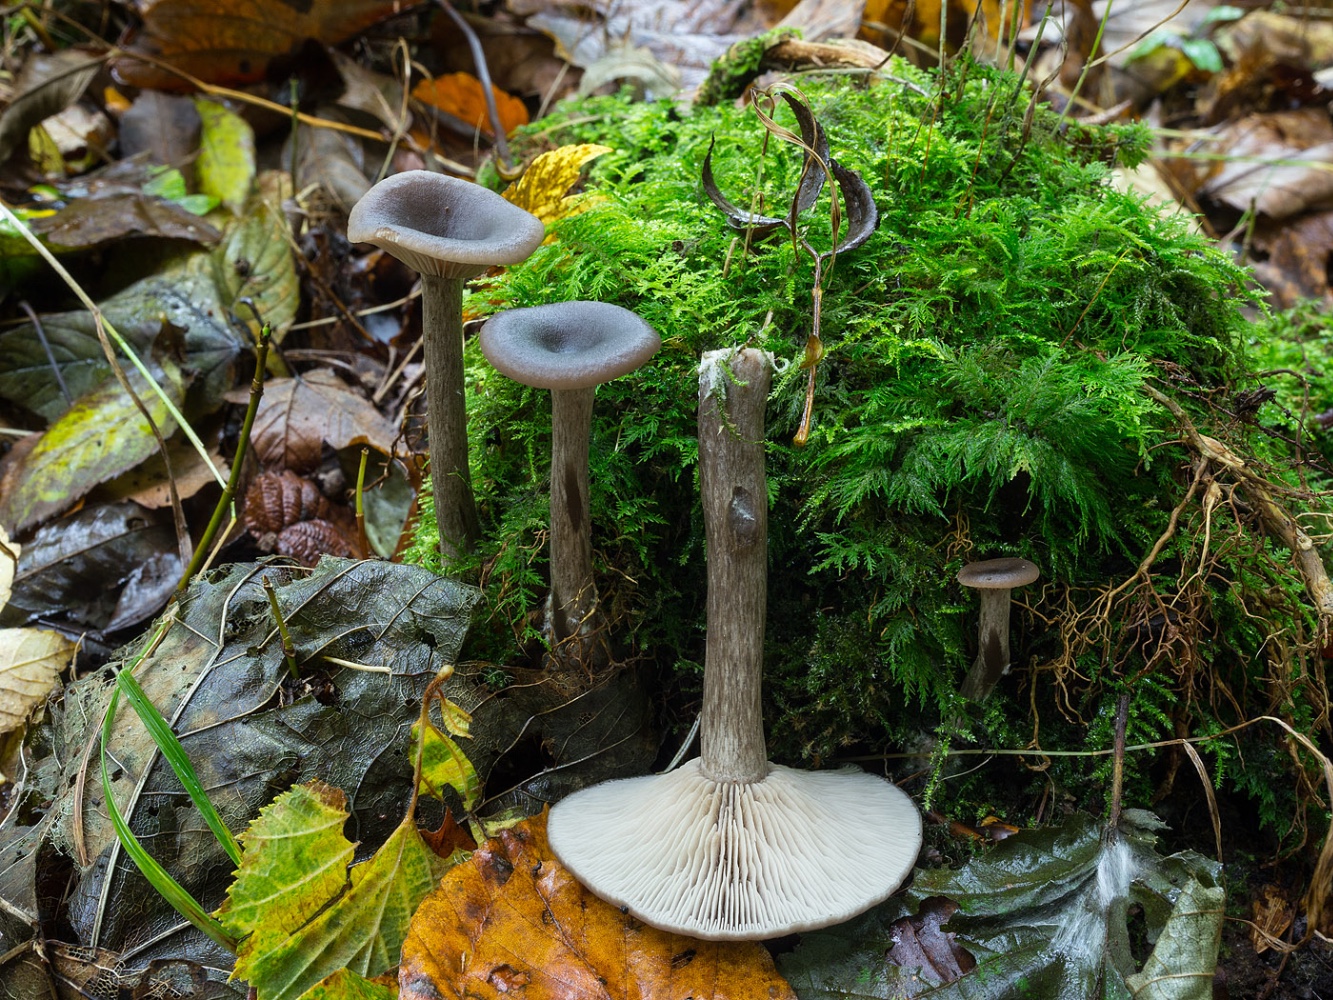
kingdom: Fungi
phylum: Basidiomycota
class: Agaricomycetes
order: Agaricales
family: Pseudoclitocybaceae
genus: Pseudoclitocybe
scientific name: Pseudoclitocybe cyathiformis
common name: almindelig bægertragthat
